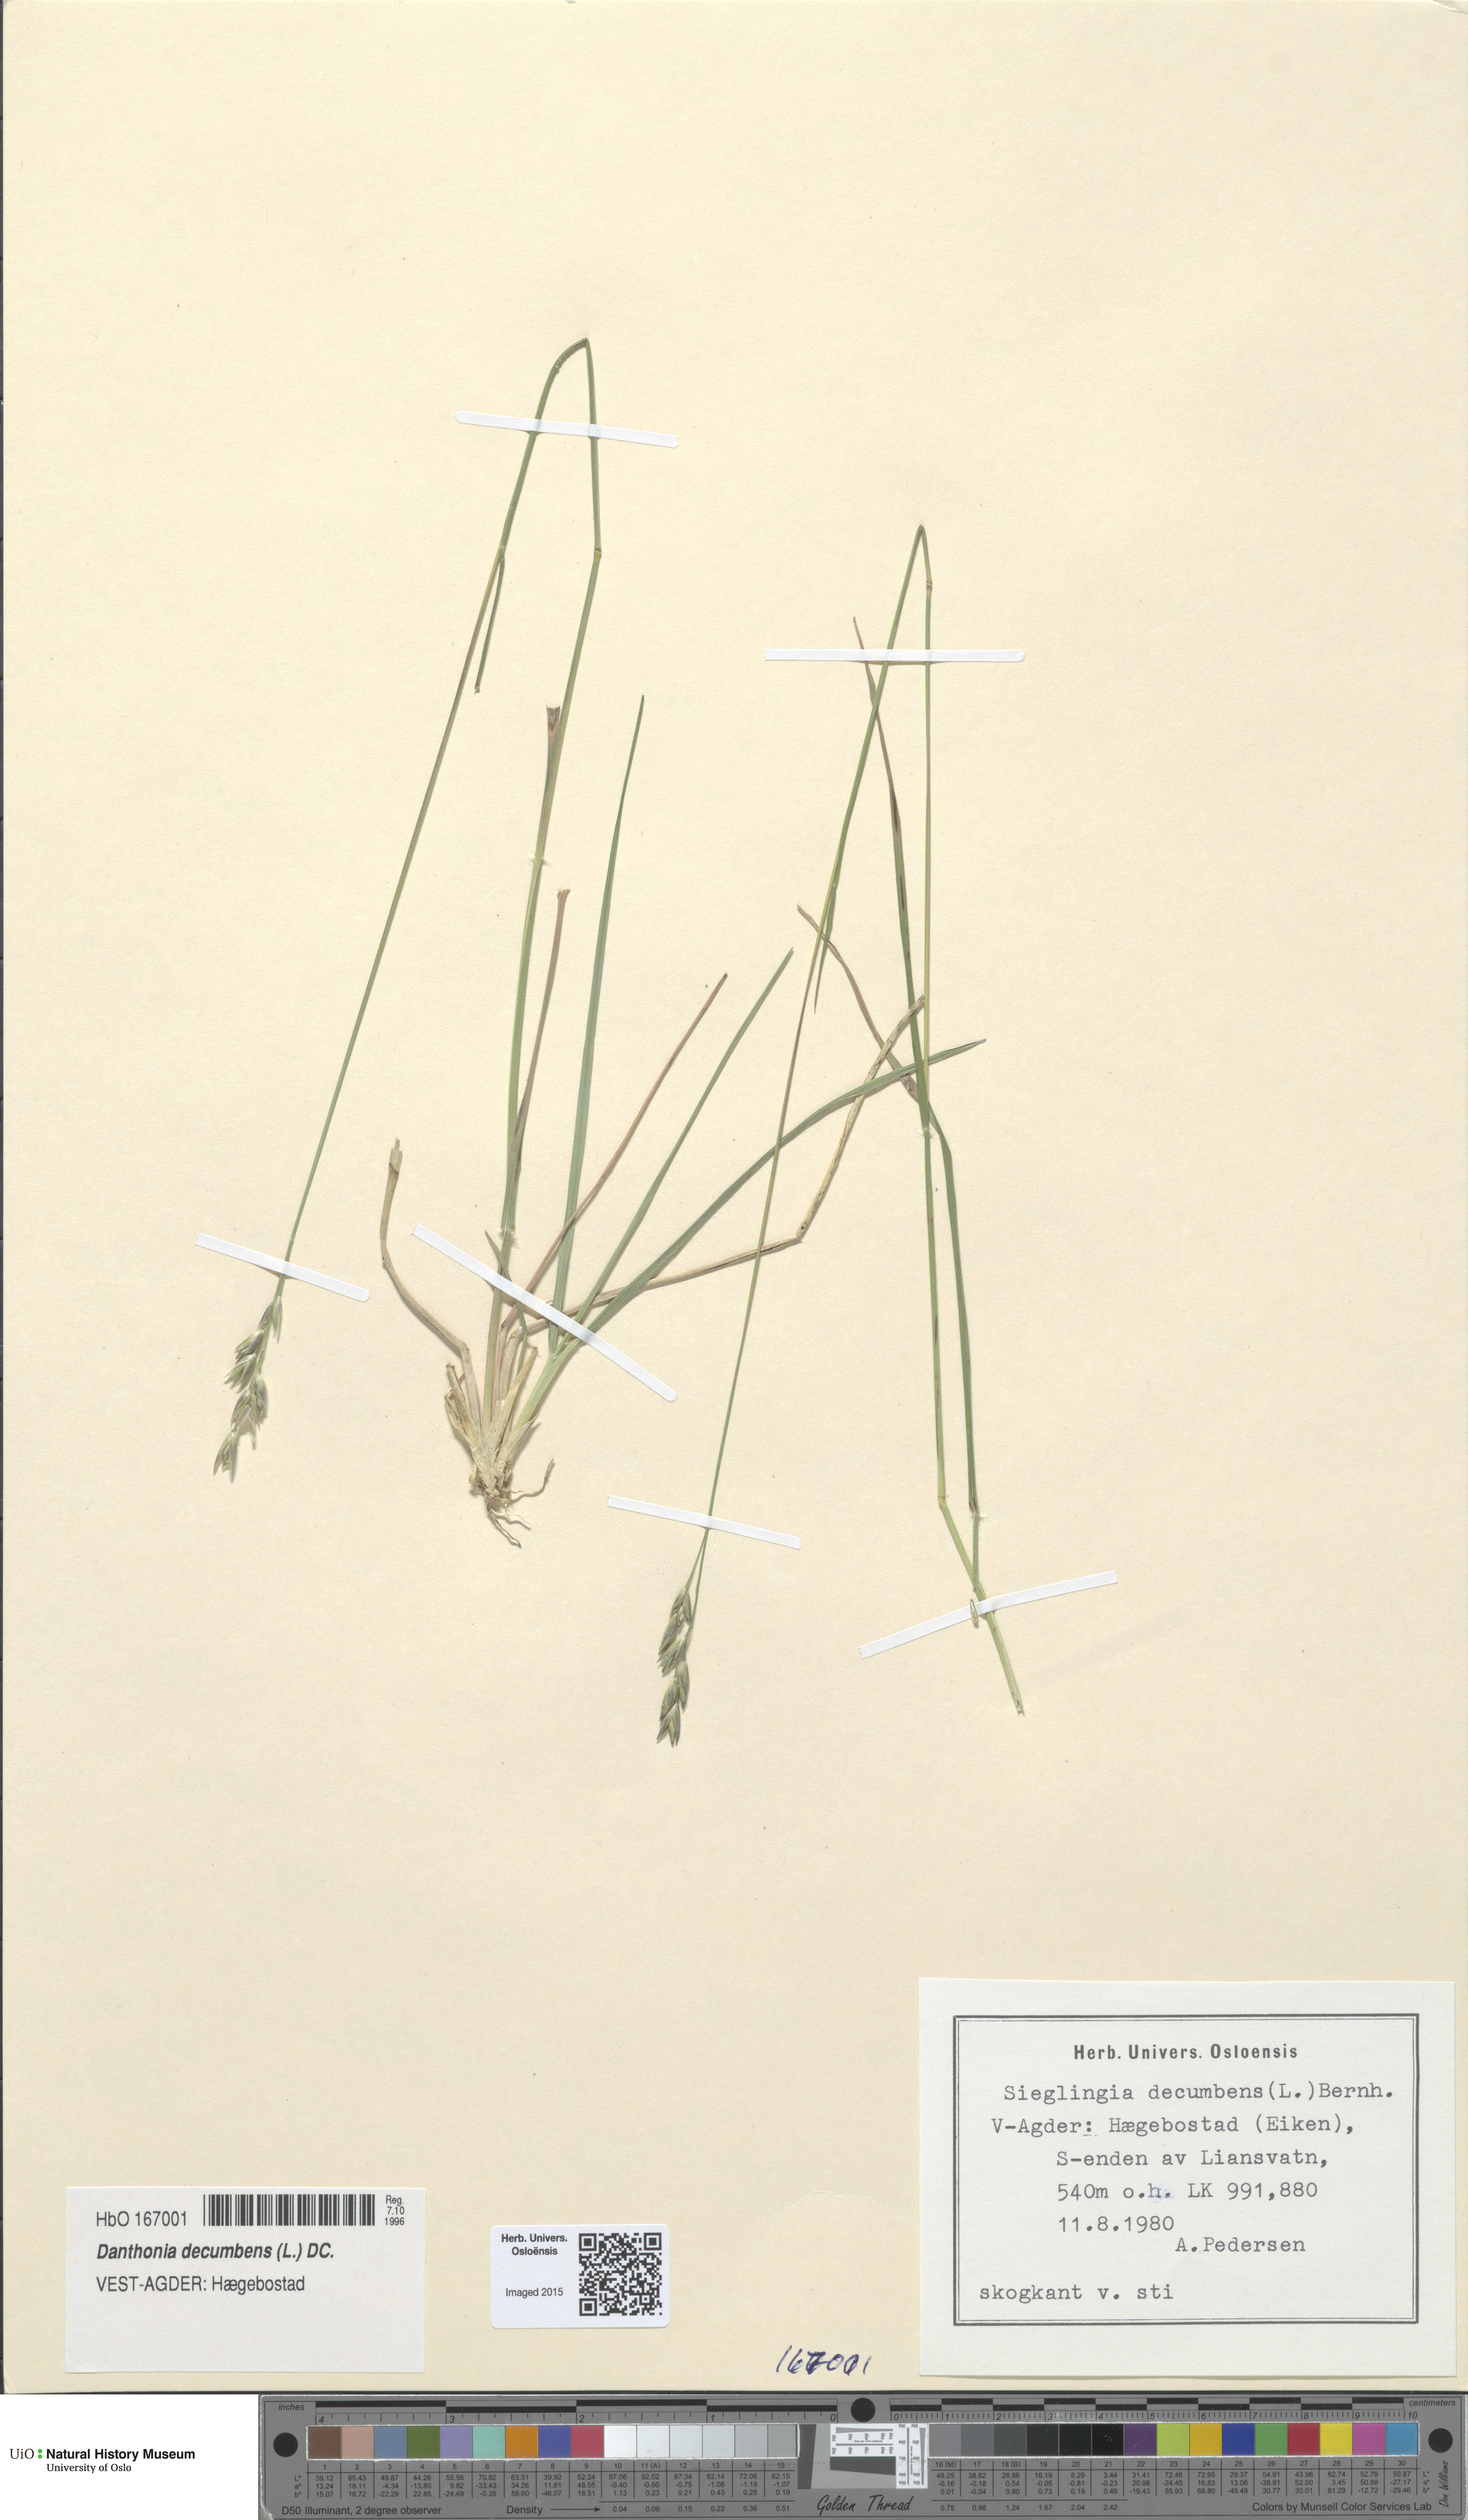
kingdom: Plantae
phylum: Tracheophyta
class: Liliopsida
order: Poales
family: Poaceae
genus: Danthonia
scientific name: Danthonia decumbens
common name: Common heathgrass
